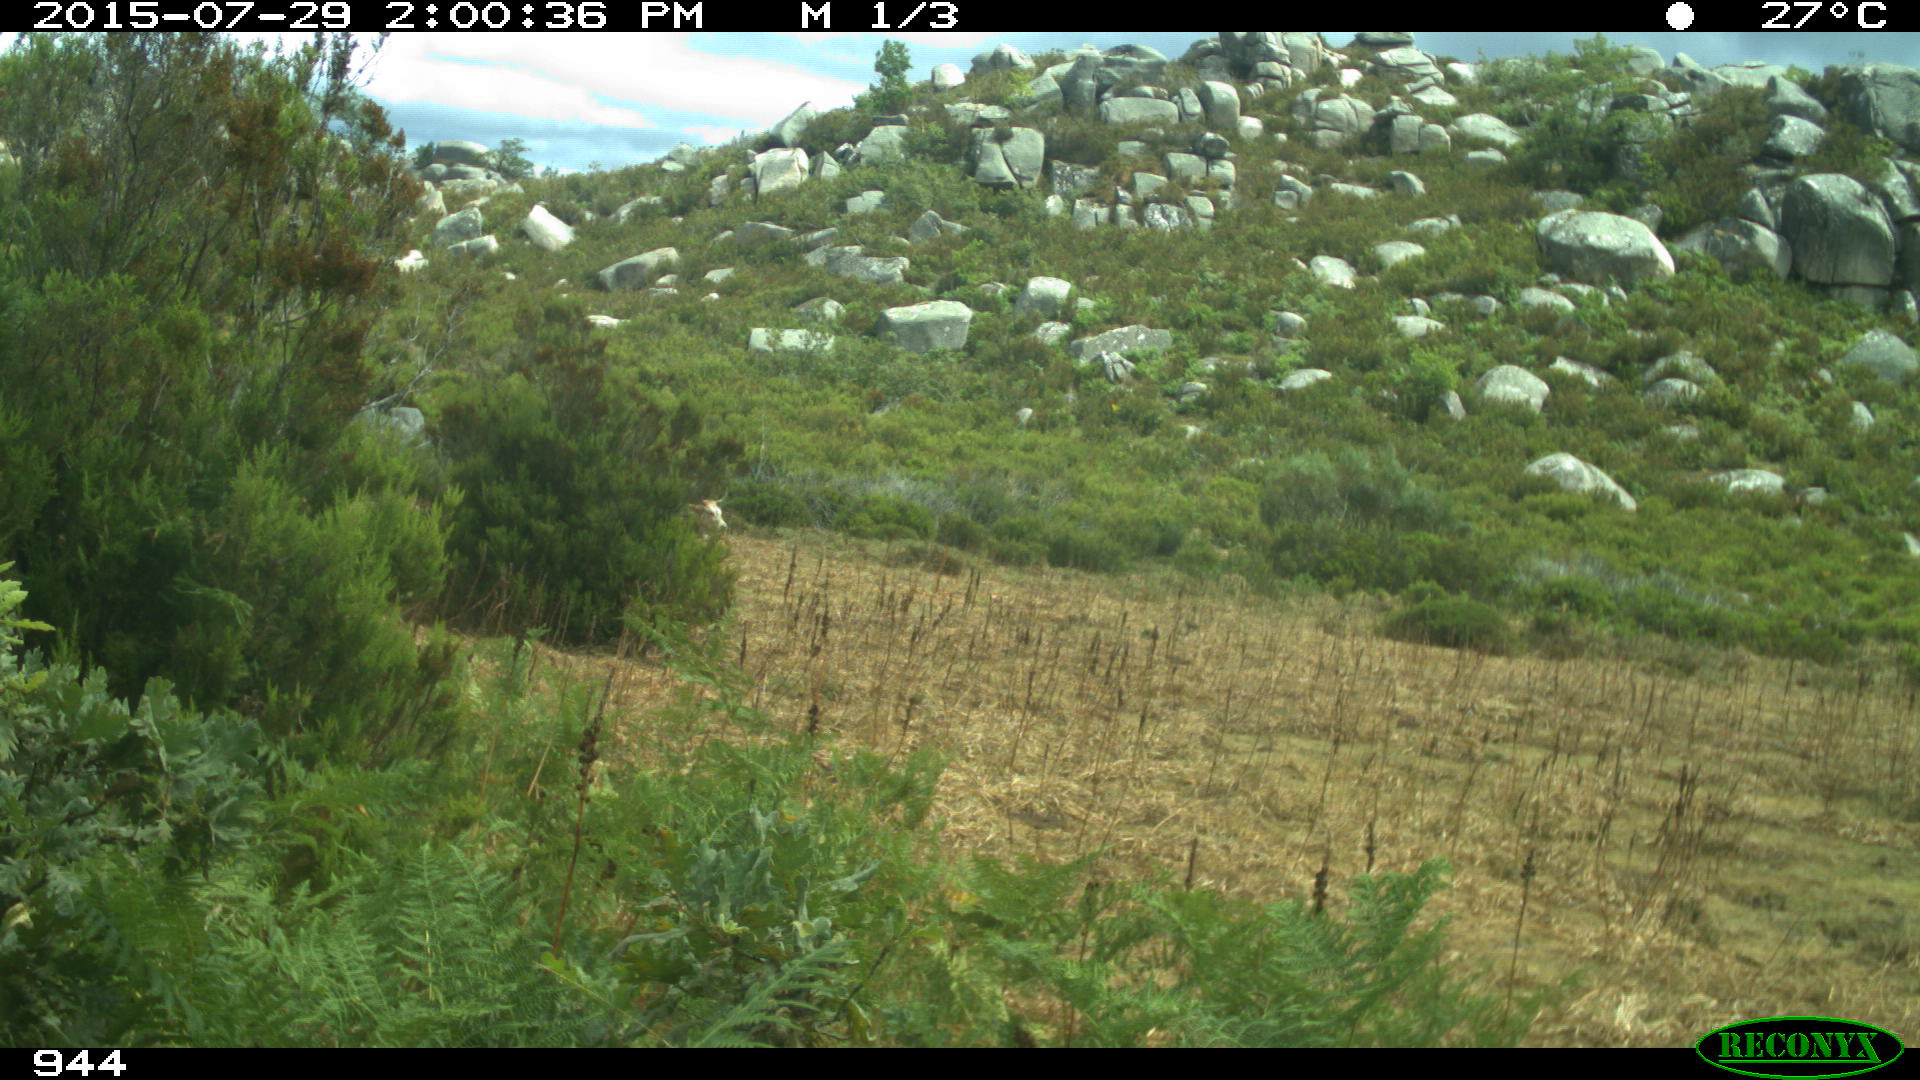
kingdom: Animalia
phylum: Chordata
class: Mammalia
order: Artiodactyla
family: Bovidae
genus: Bos
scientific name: Bos taurus
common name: Domesticated cattle
